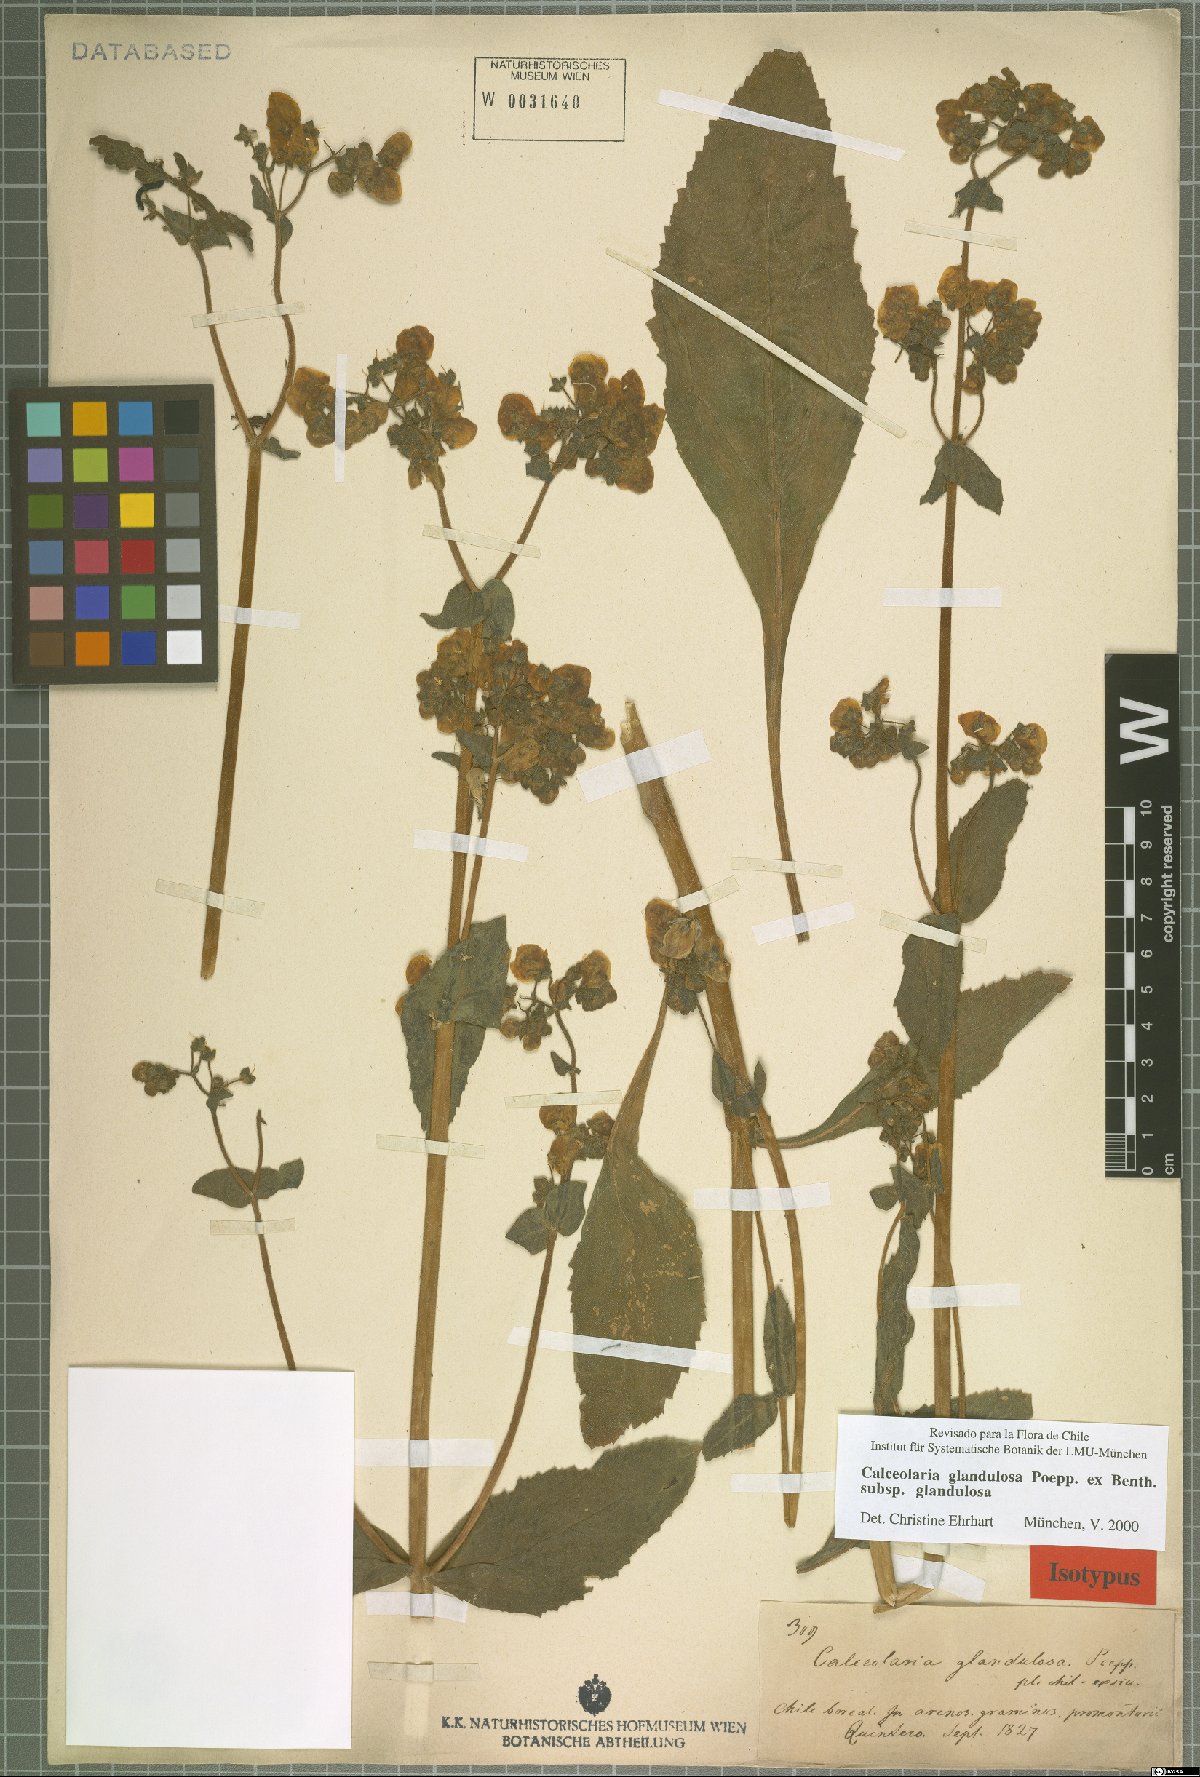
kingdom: Plantae
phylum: Tracheophyta
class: Magnoliopsida
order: Lamiales
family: Calceolariaceae
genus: Calceolaria
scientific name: Calceolaria glandulosa
